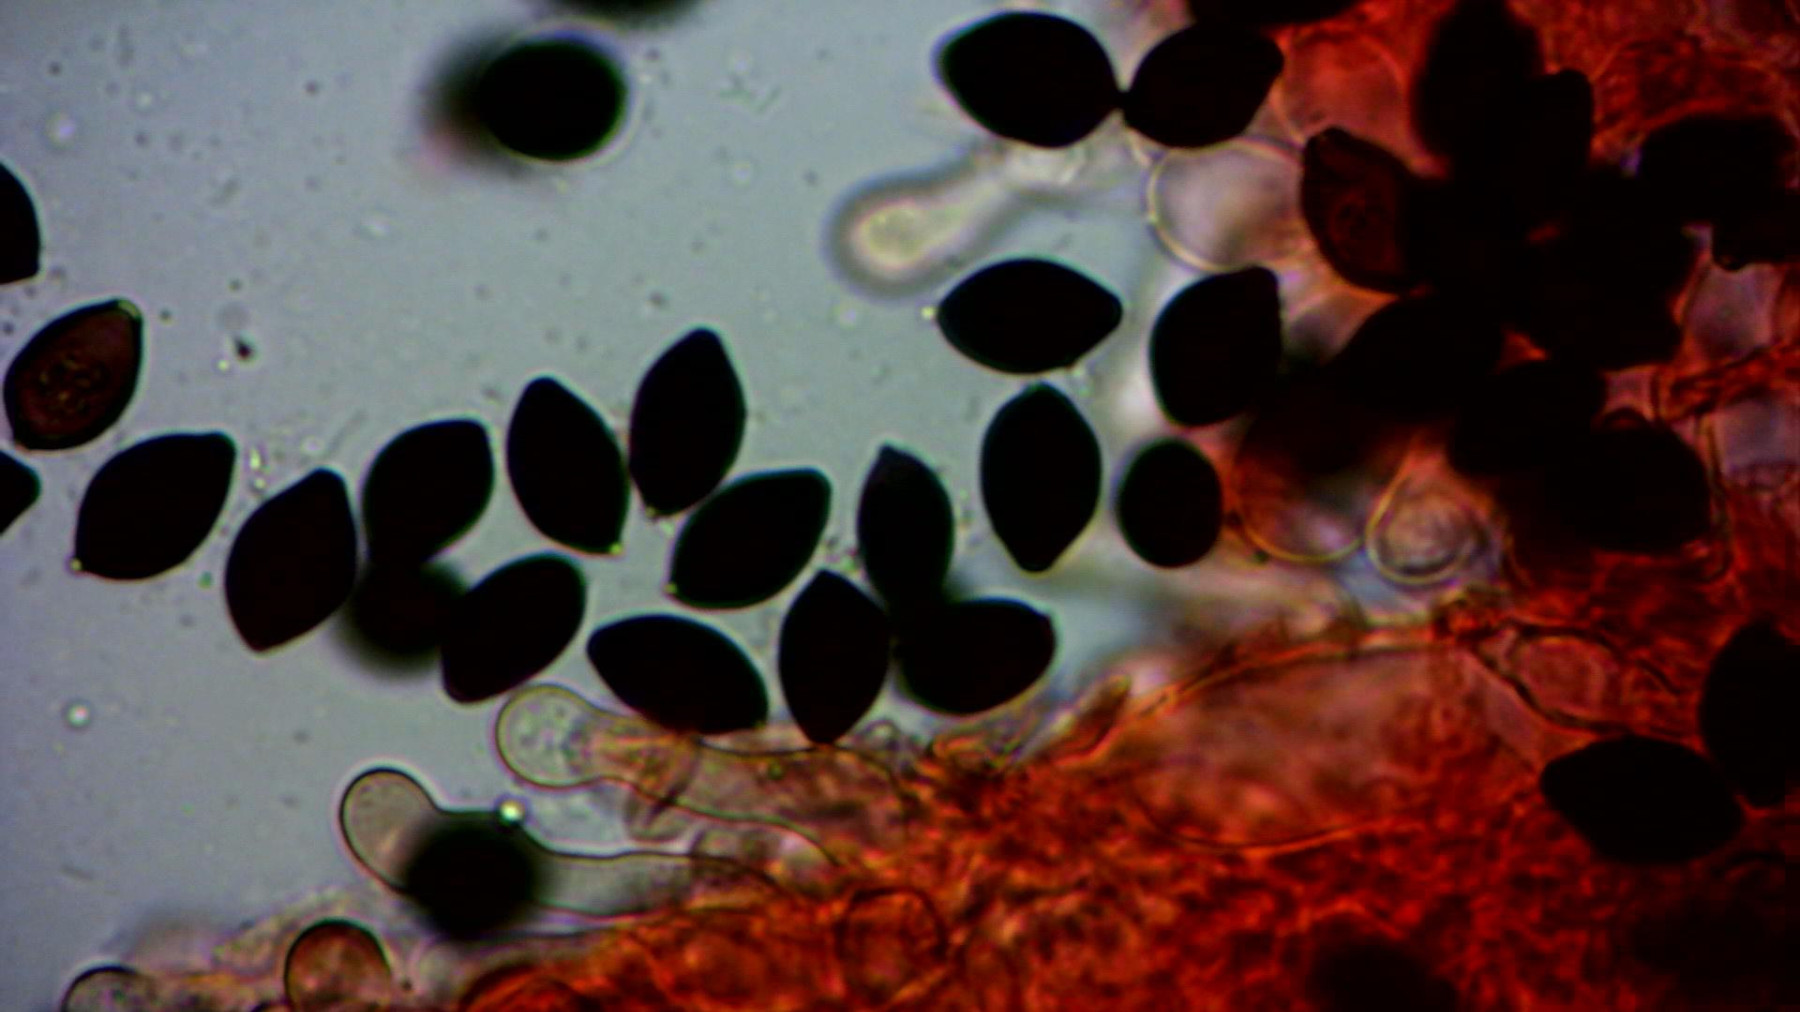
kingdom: Fungi
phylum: Basidiomycota
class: Agaricomycetes
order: Agaricales
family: Bolbitiaceae
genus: Panaeolus
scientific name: Panaeolus papilionaceus
